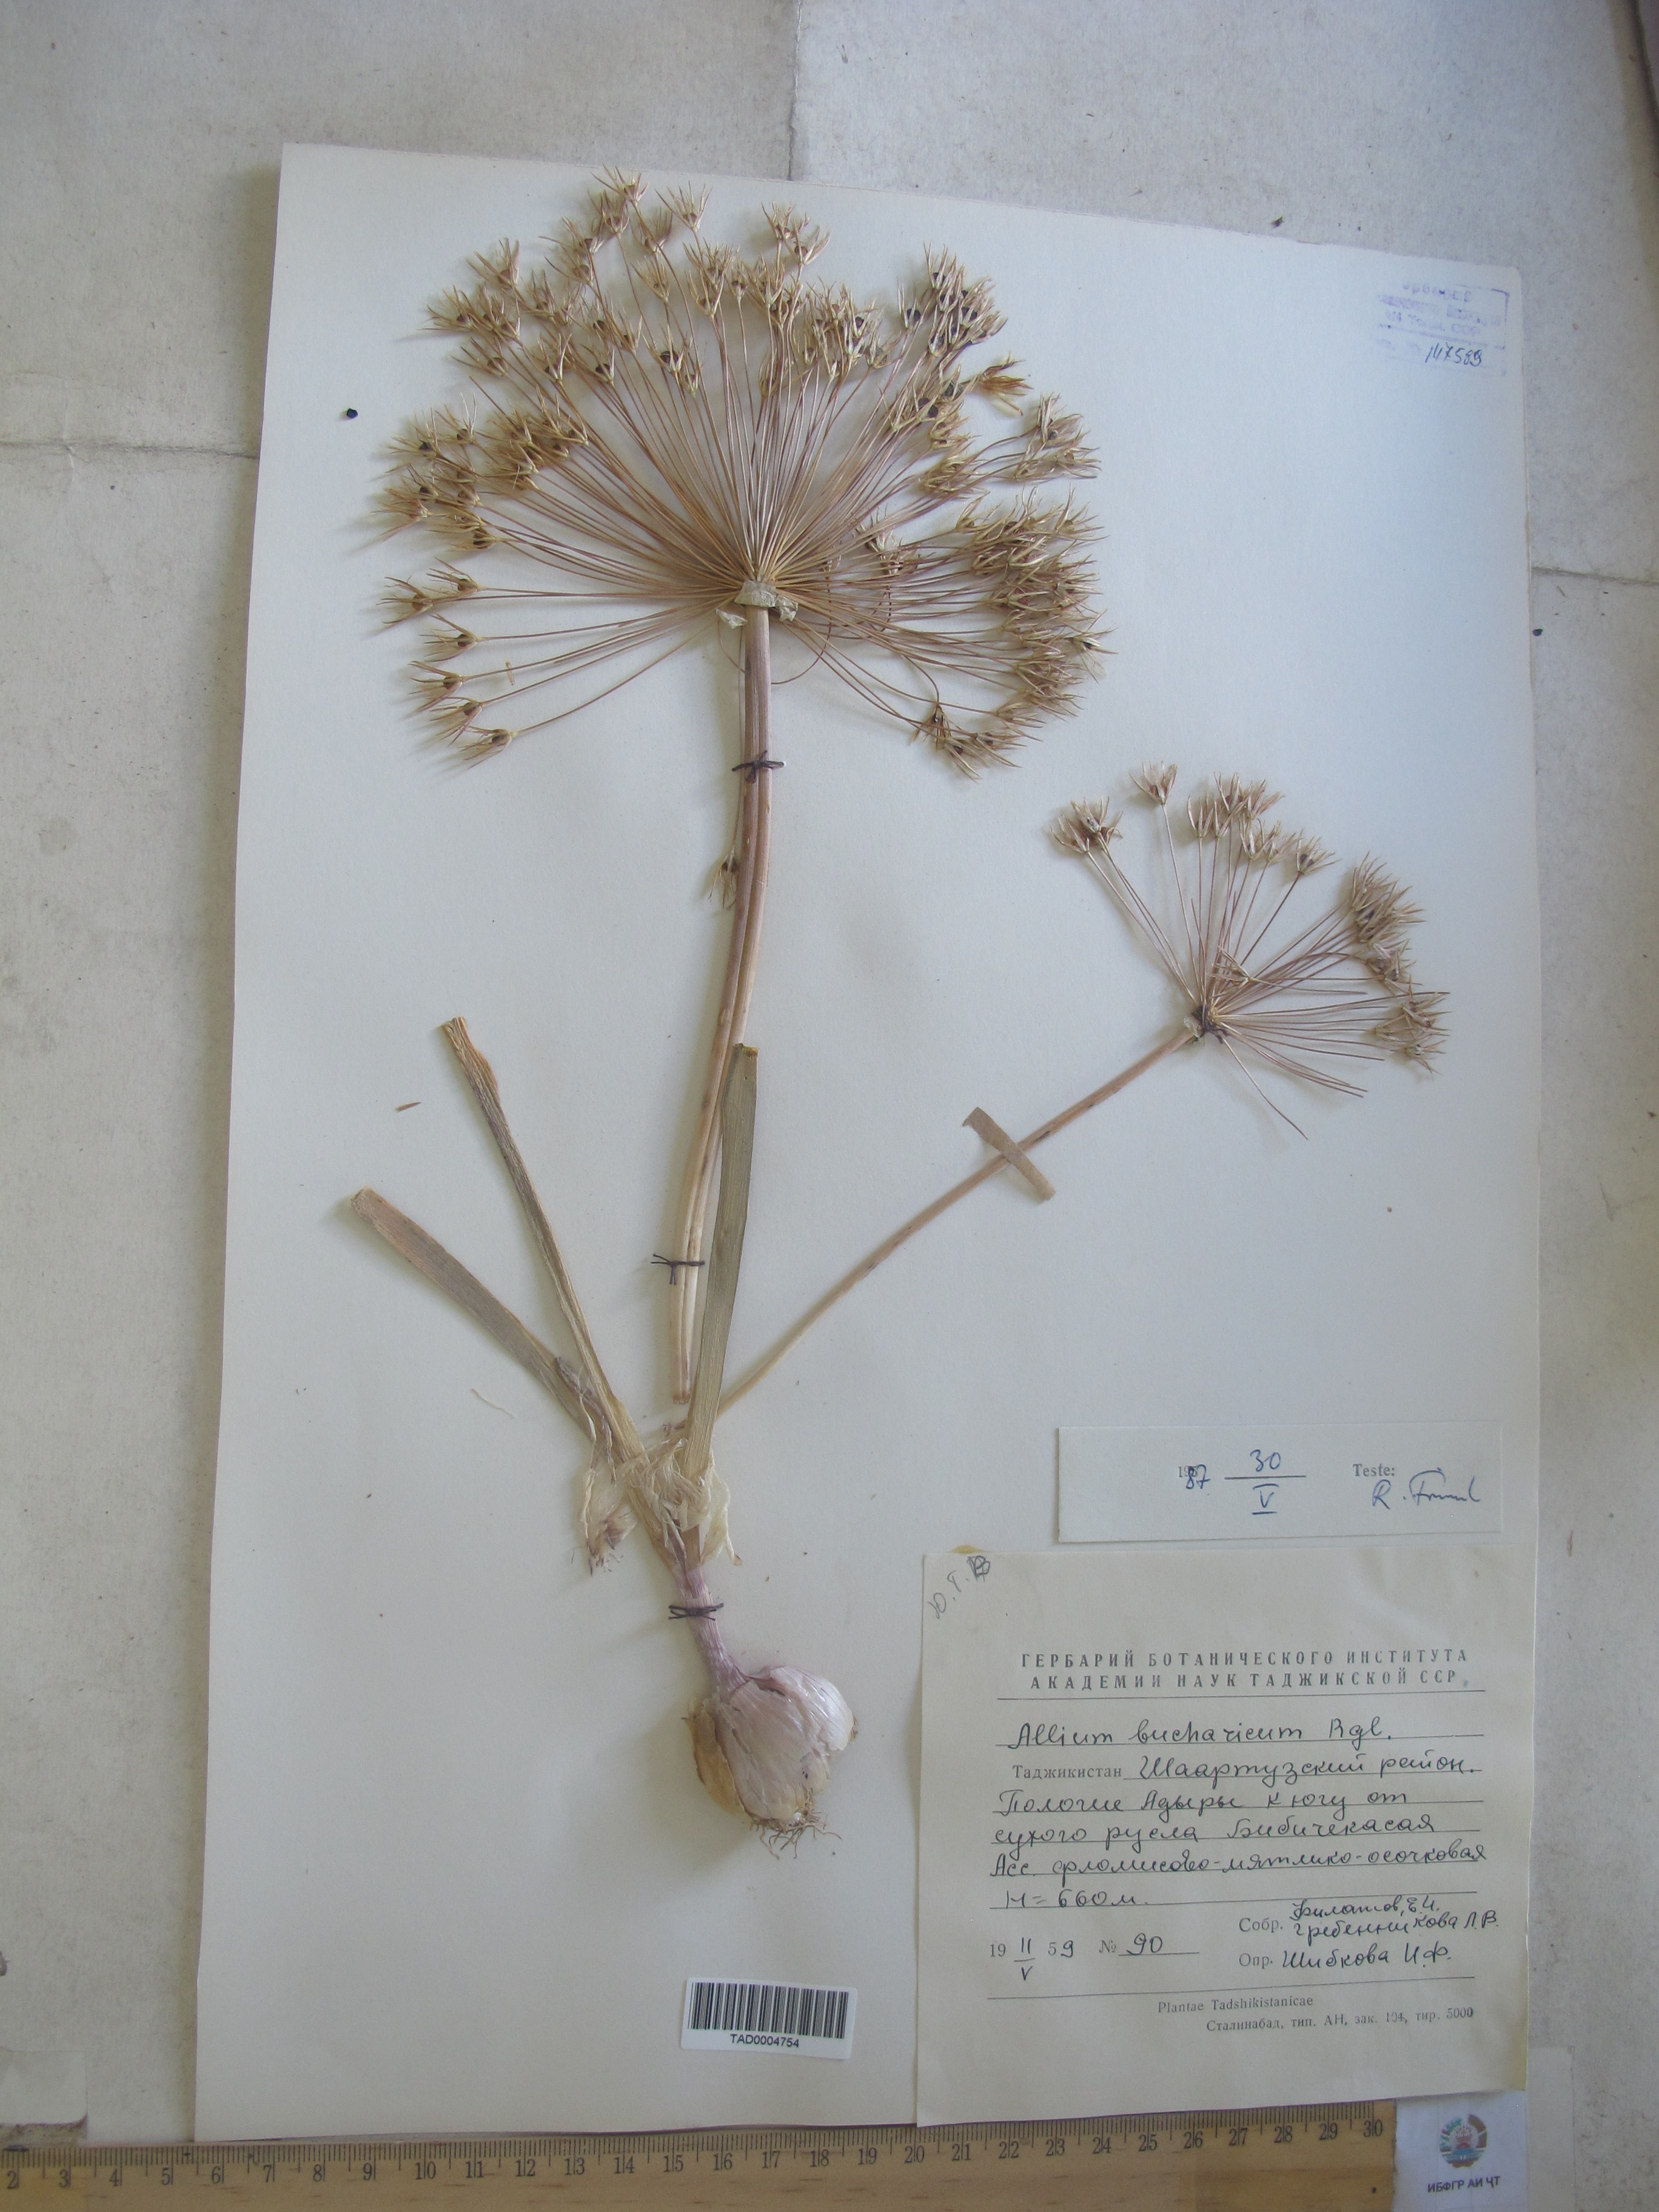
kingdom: Plantae
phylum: Tracheophyta
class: Liliopsida
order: Asparagales
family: Amaryllidaceae
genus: Allium
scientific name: Allium bucharicum
